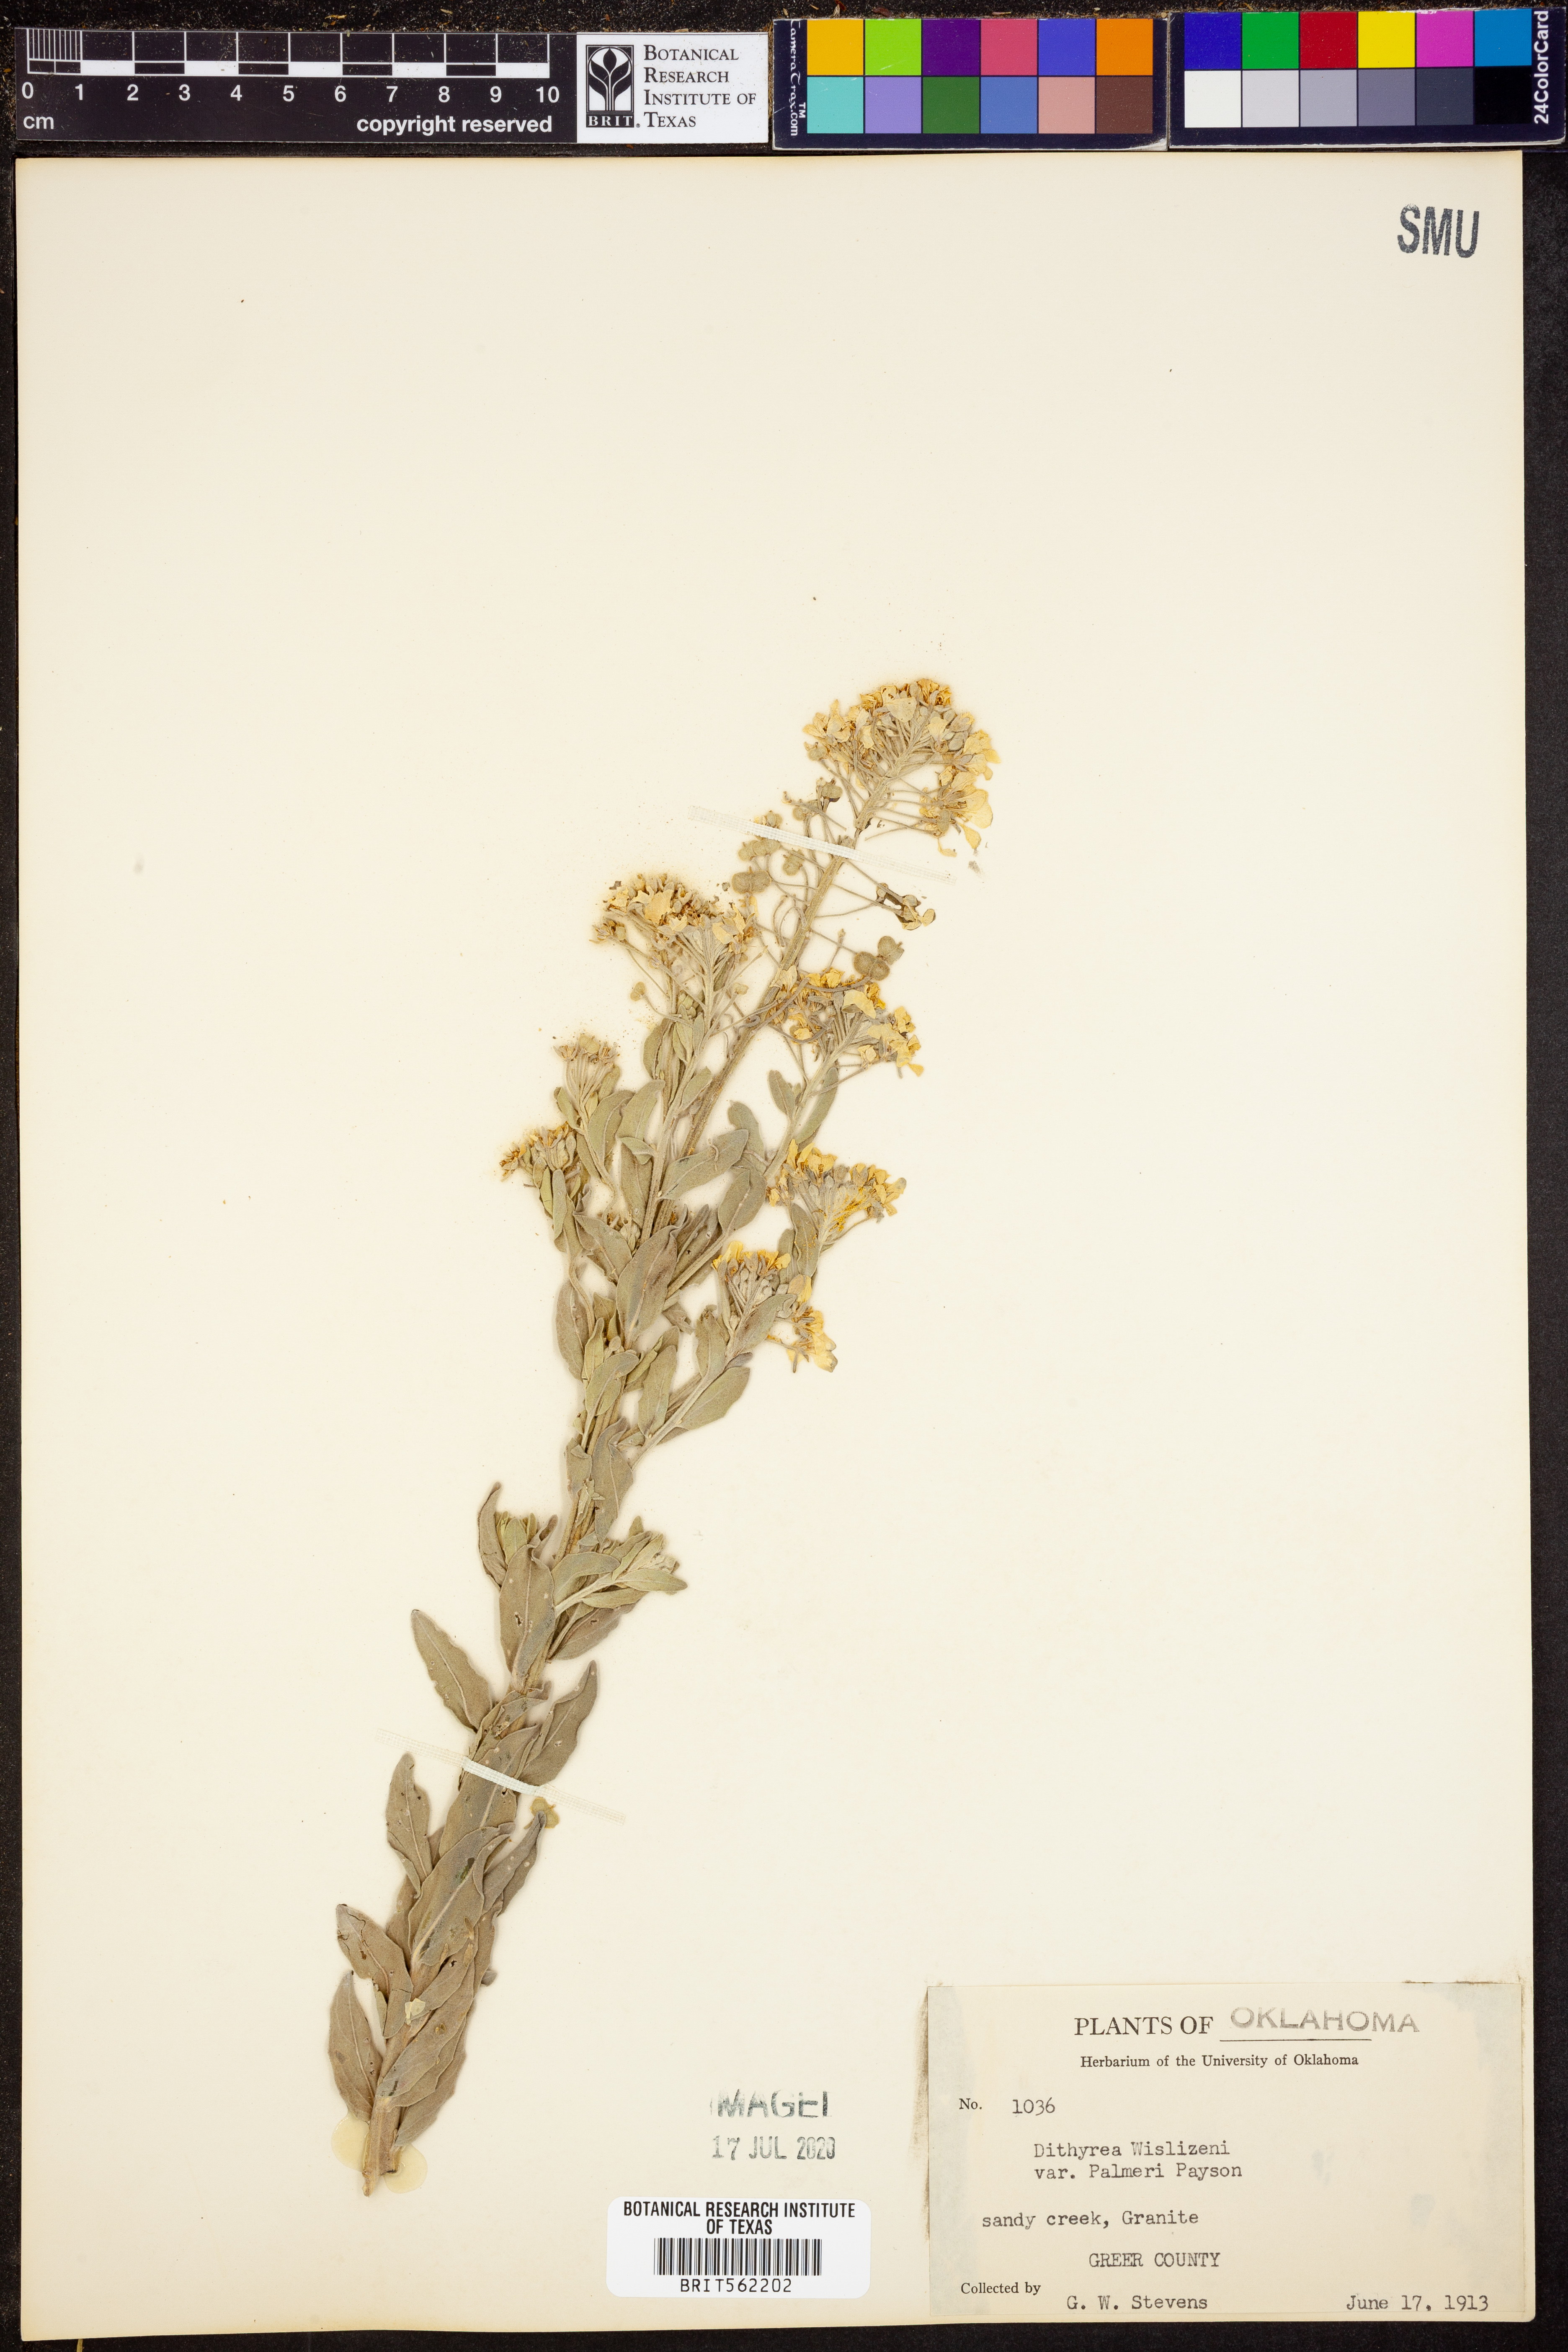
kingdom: Plantae
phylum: Tracheophyta
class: Magnoliopsida
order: Brassicales
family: Brassicaceae
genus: Dimorphocarpa
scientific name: Dimorphocarpa candicans
